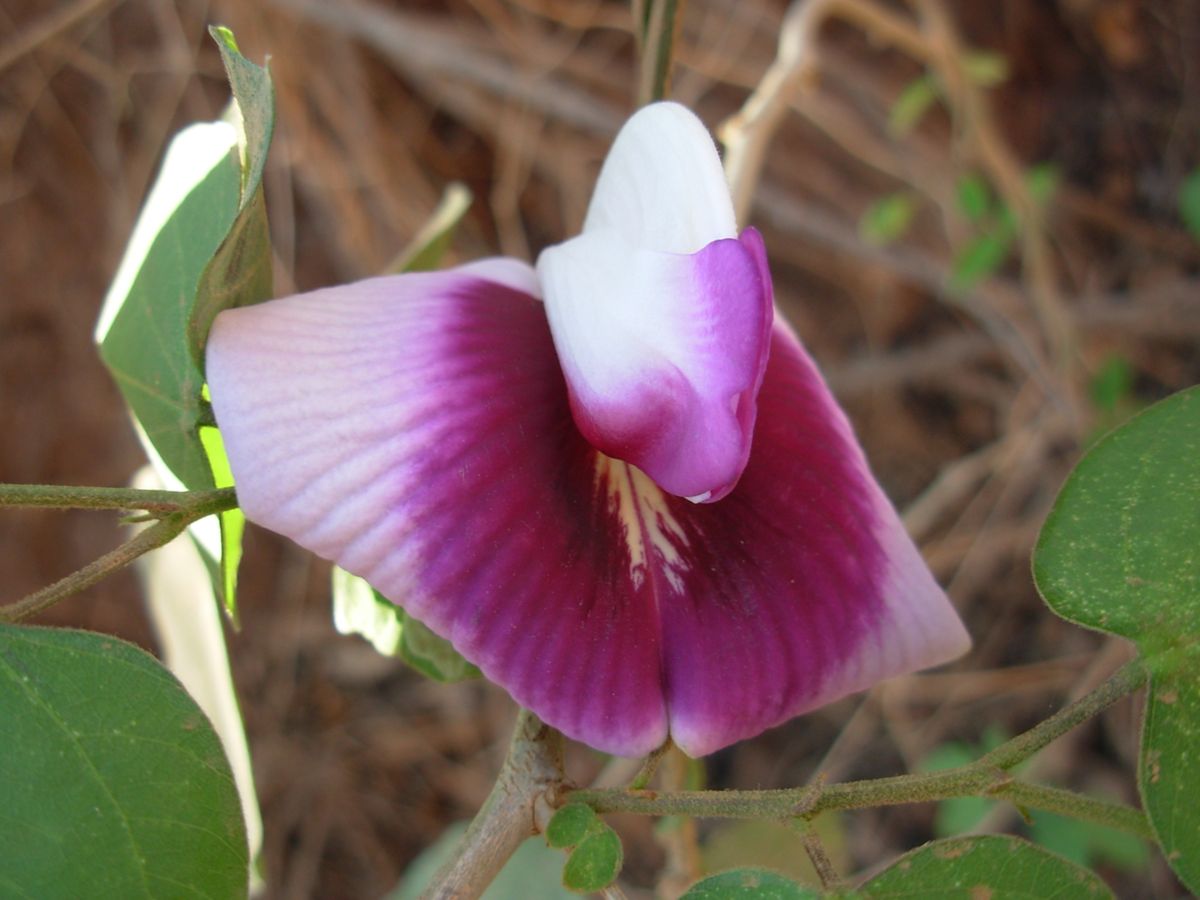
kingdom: Plantae
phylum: Tracheophyta
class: Magnoliopsida
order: Fabales
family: Fabaceae
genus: Centrosema
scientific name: Centrosema plumieri
